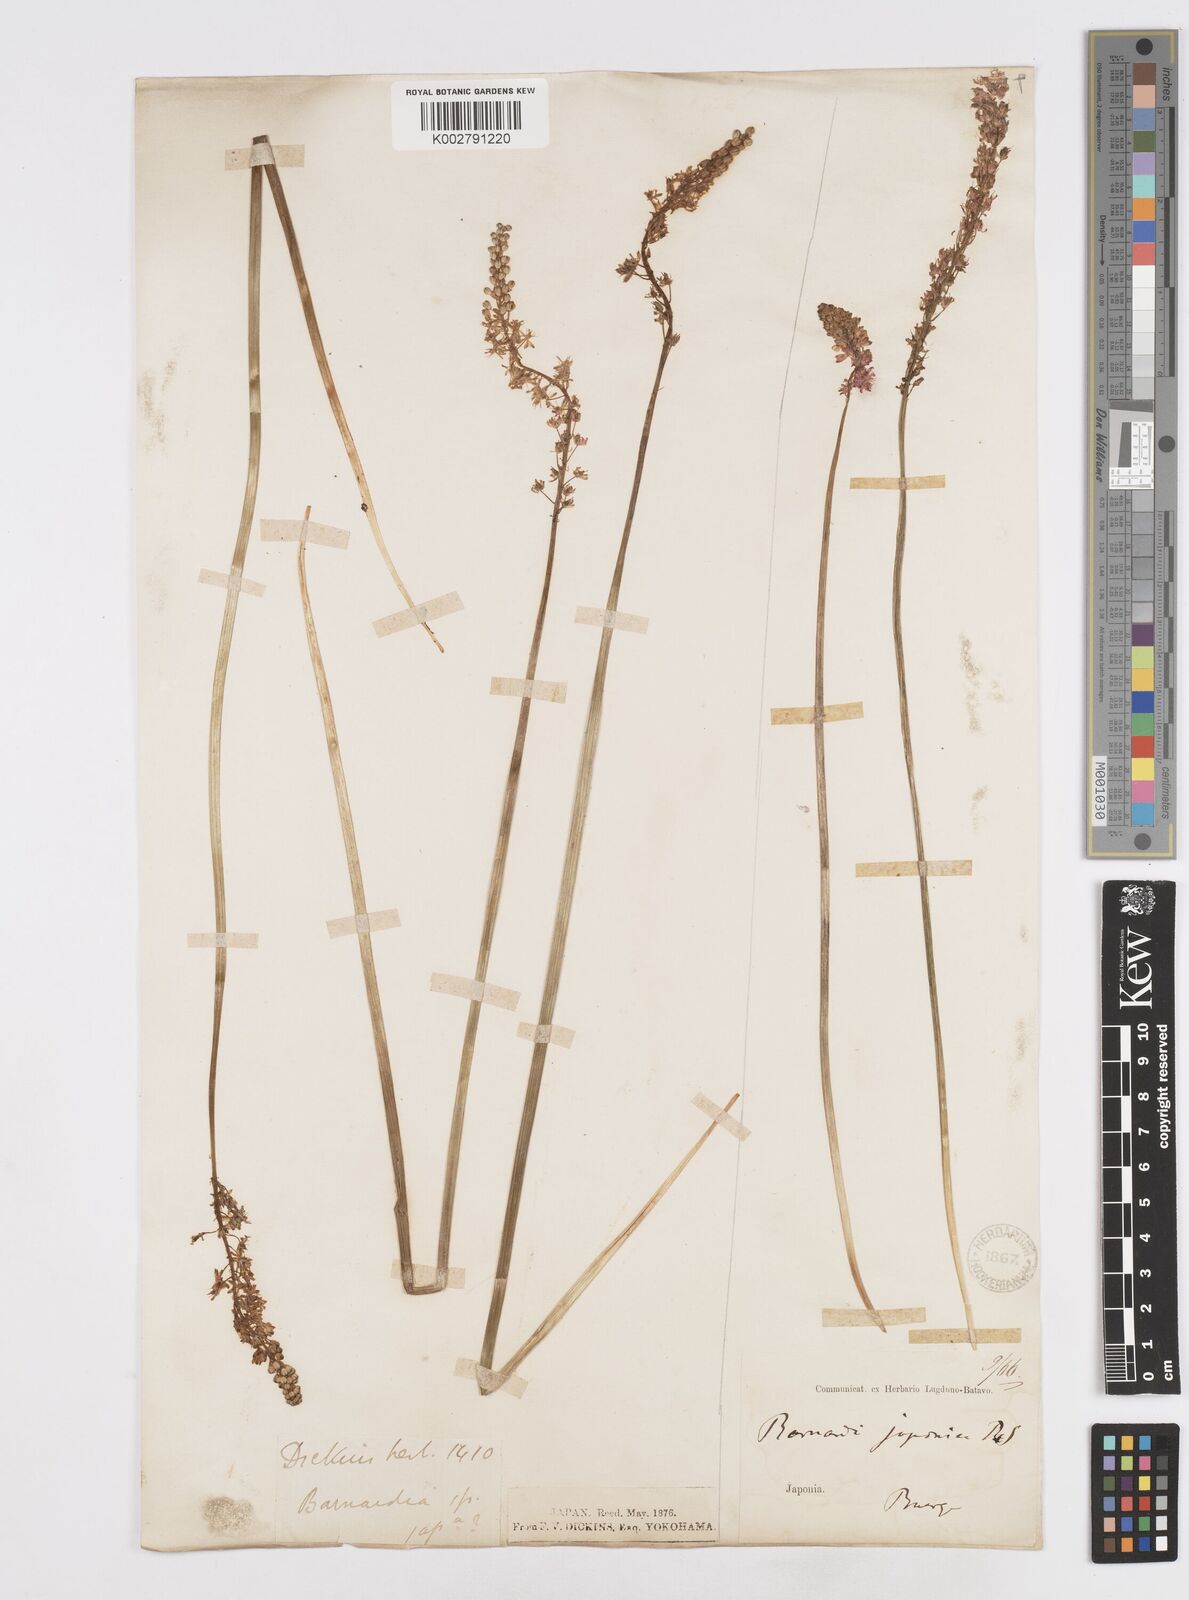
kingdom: Plantae
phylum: Tracheophyta
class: Liliopsida
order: Liliales
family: Melanthiaceae
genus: Helonias
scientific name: Helonias breviscapa
